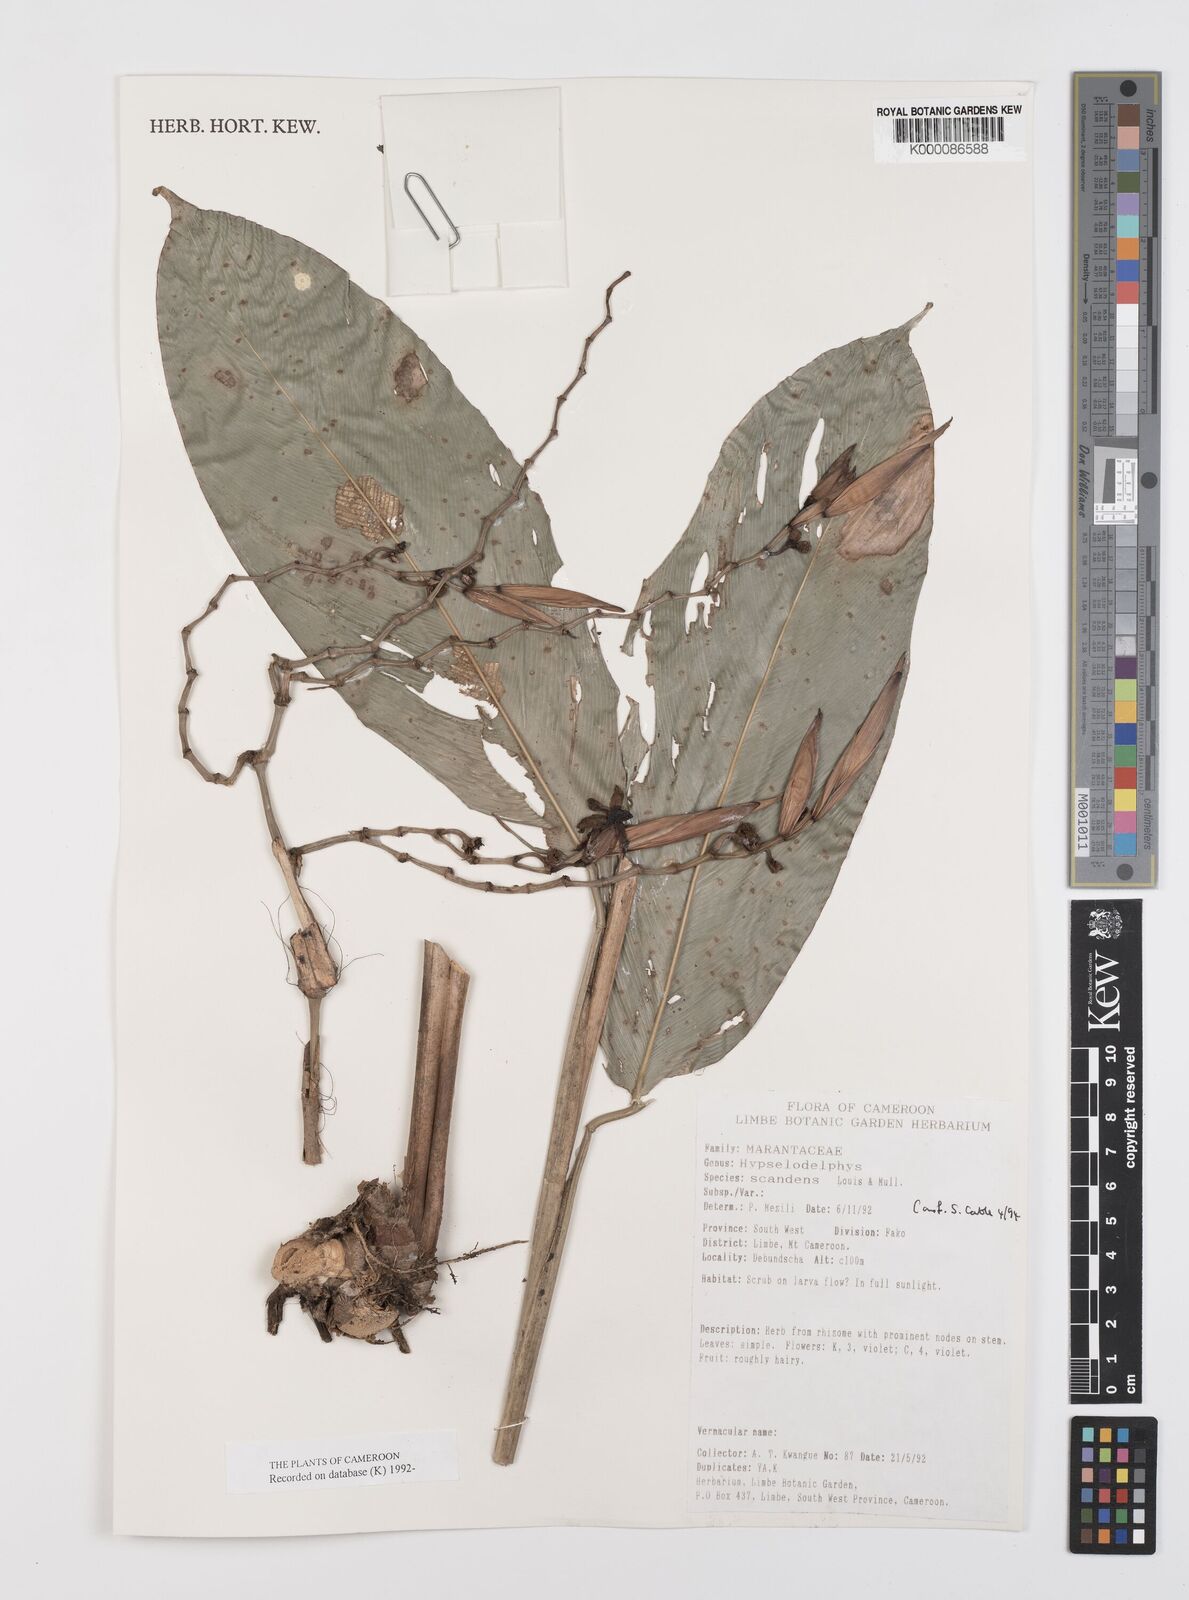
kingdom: Plantae
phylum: Tracheophyta
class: Liliopsida
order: Zingiberales
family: Marantaceae
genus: Hypselodelphys
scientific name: Hypselodelphys scandens
